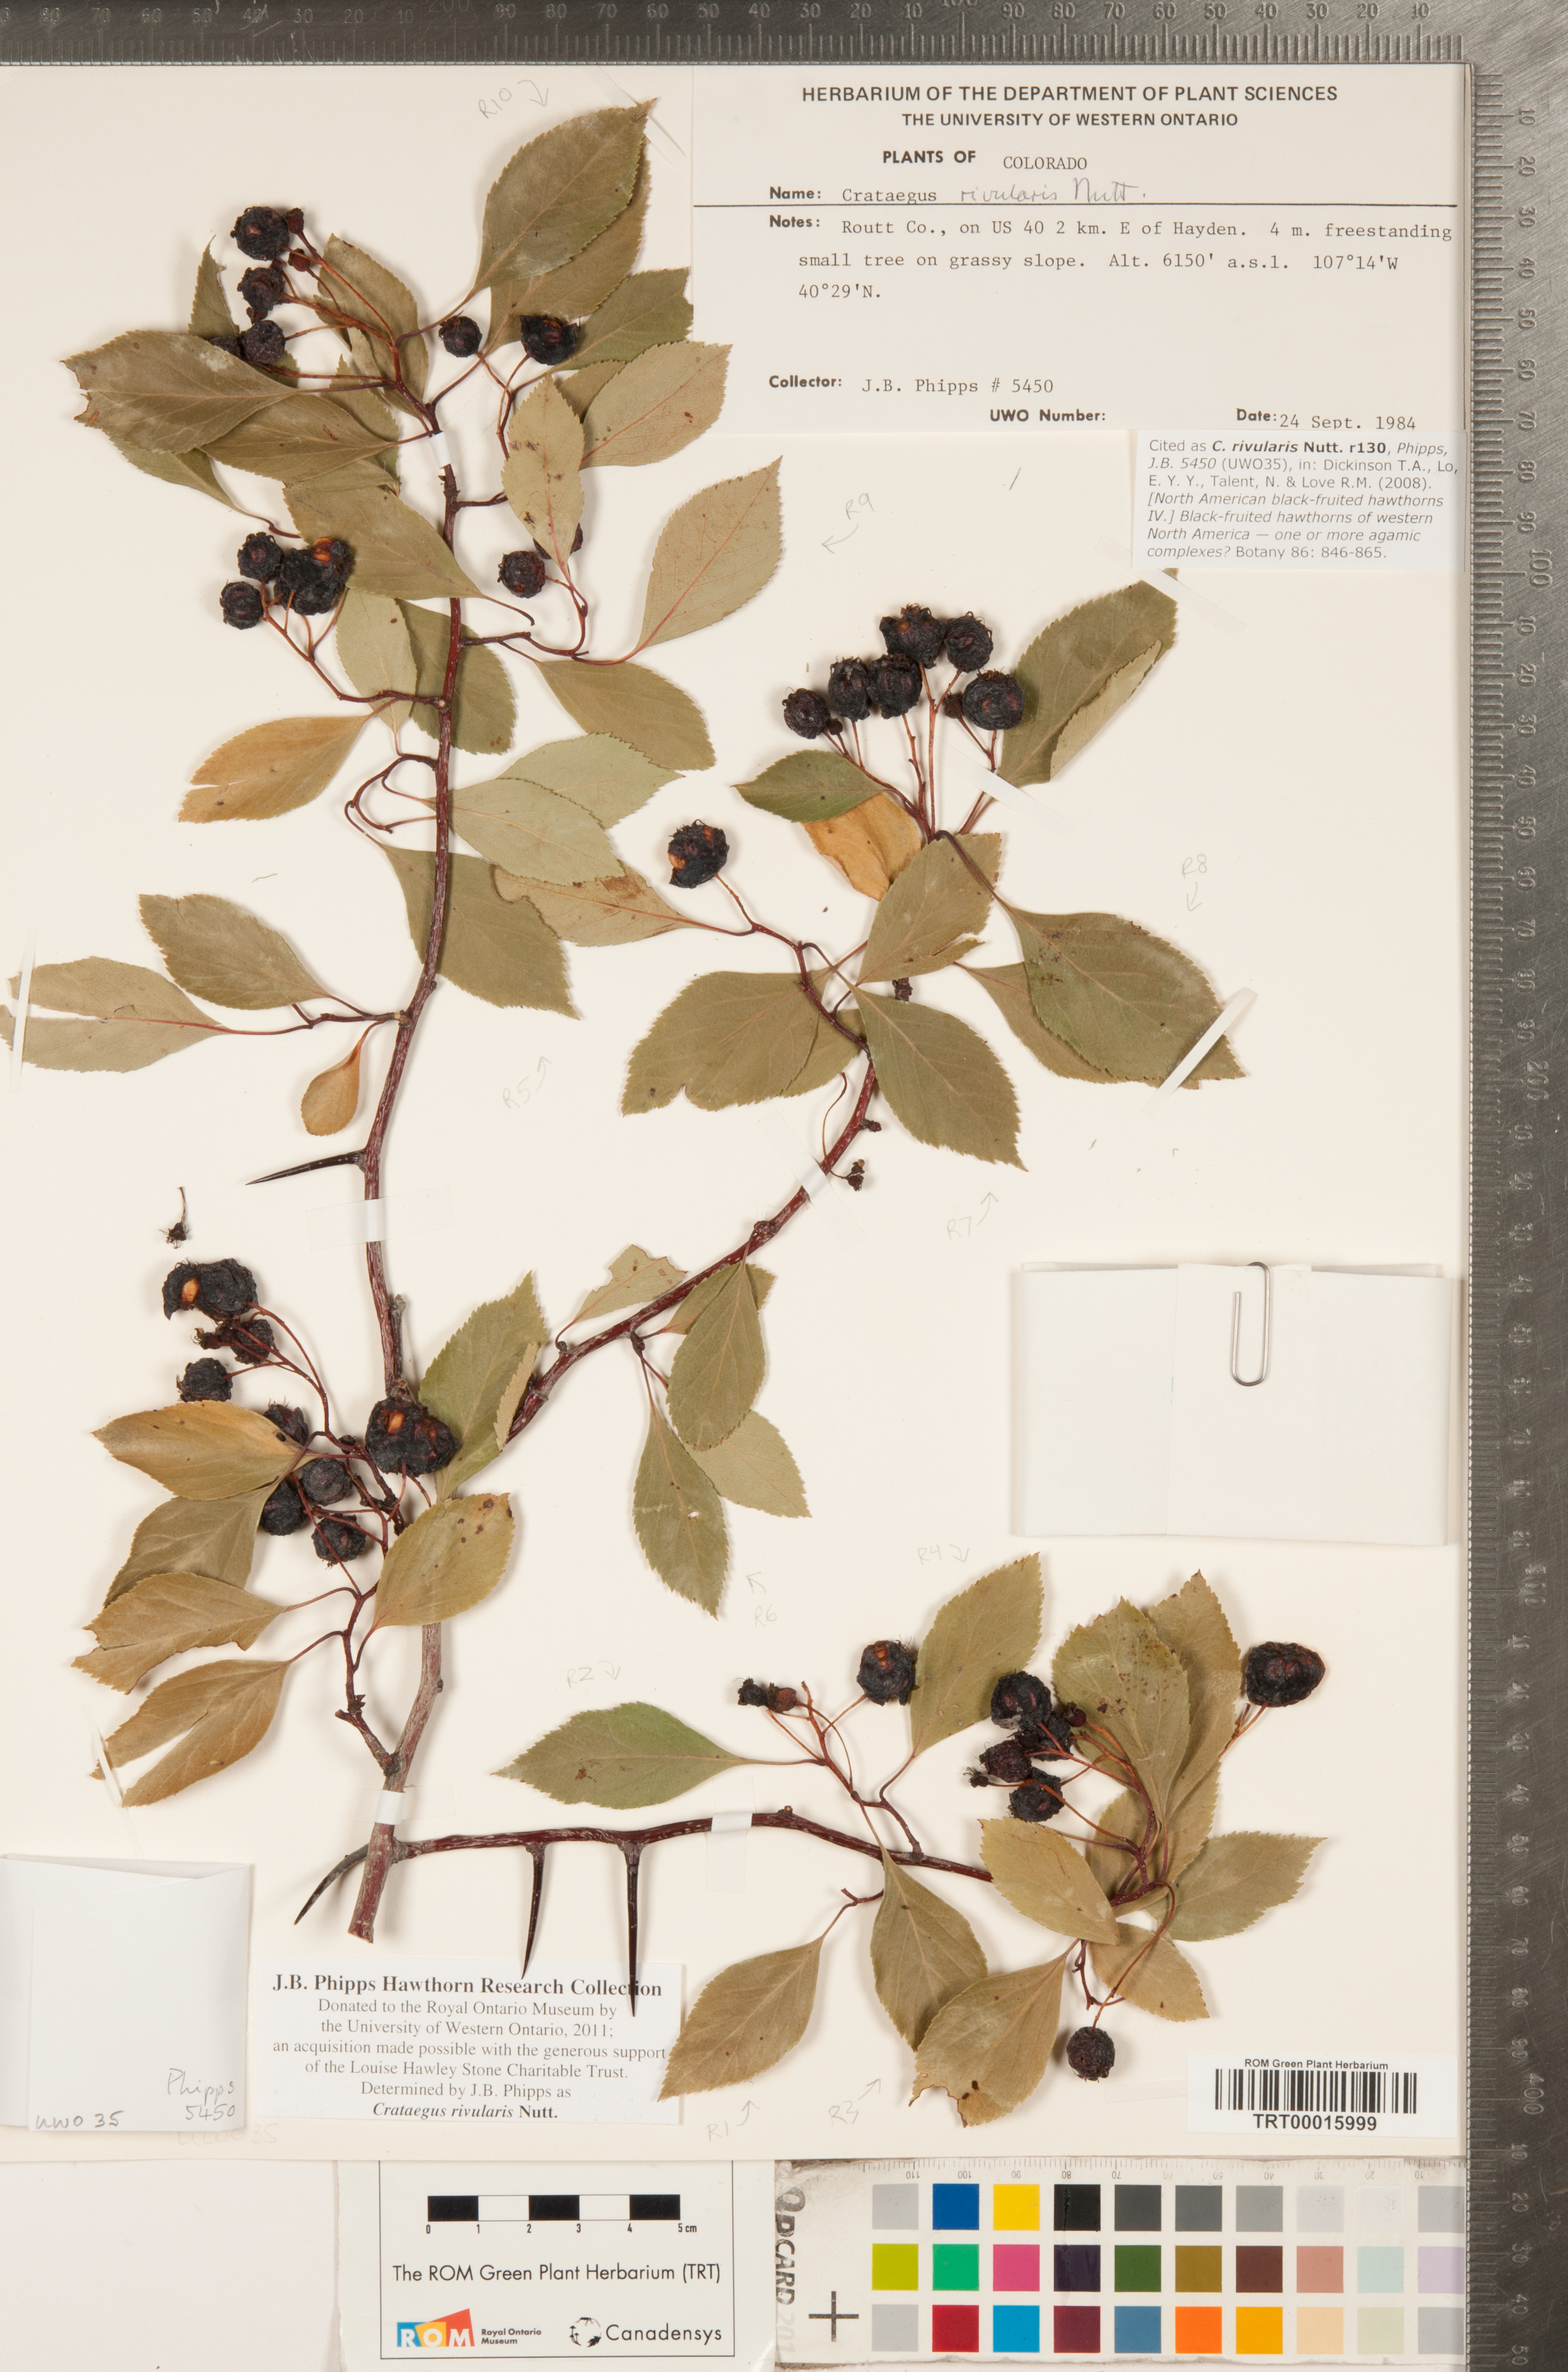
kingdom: Plantae
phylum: Tracheophyta
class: Magnoliopsida
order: Rosales
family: Rosaceae
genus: Crataegus
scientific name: Crataegus rivularis
